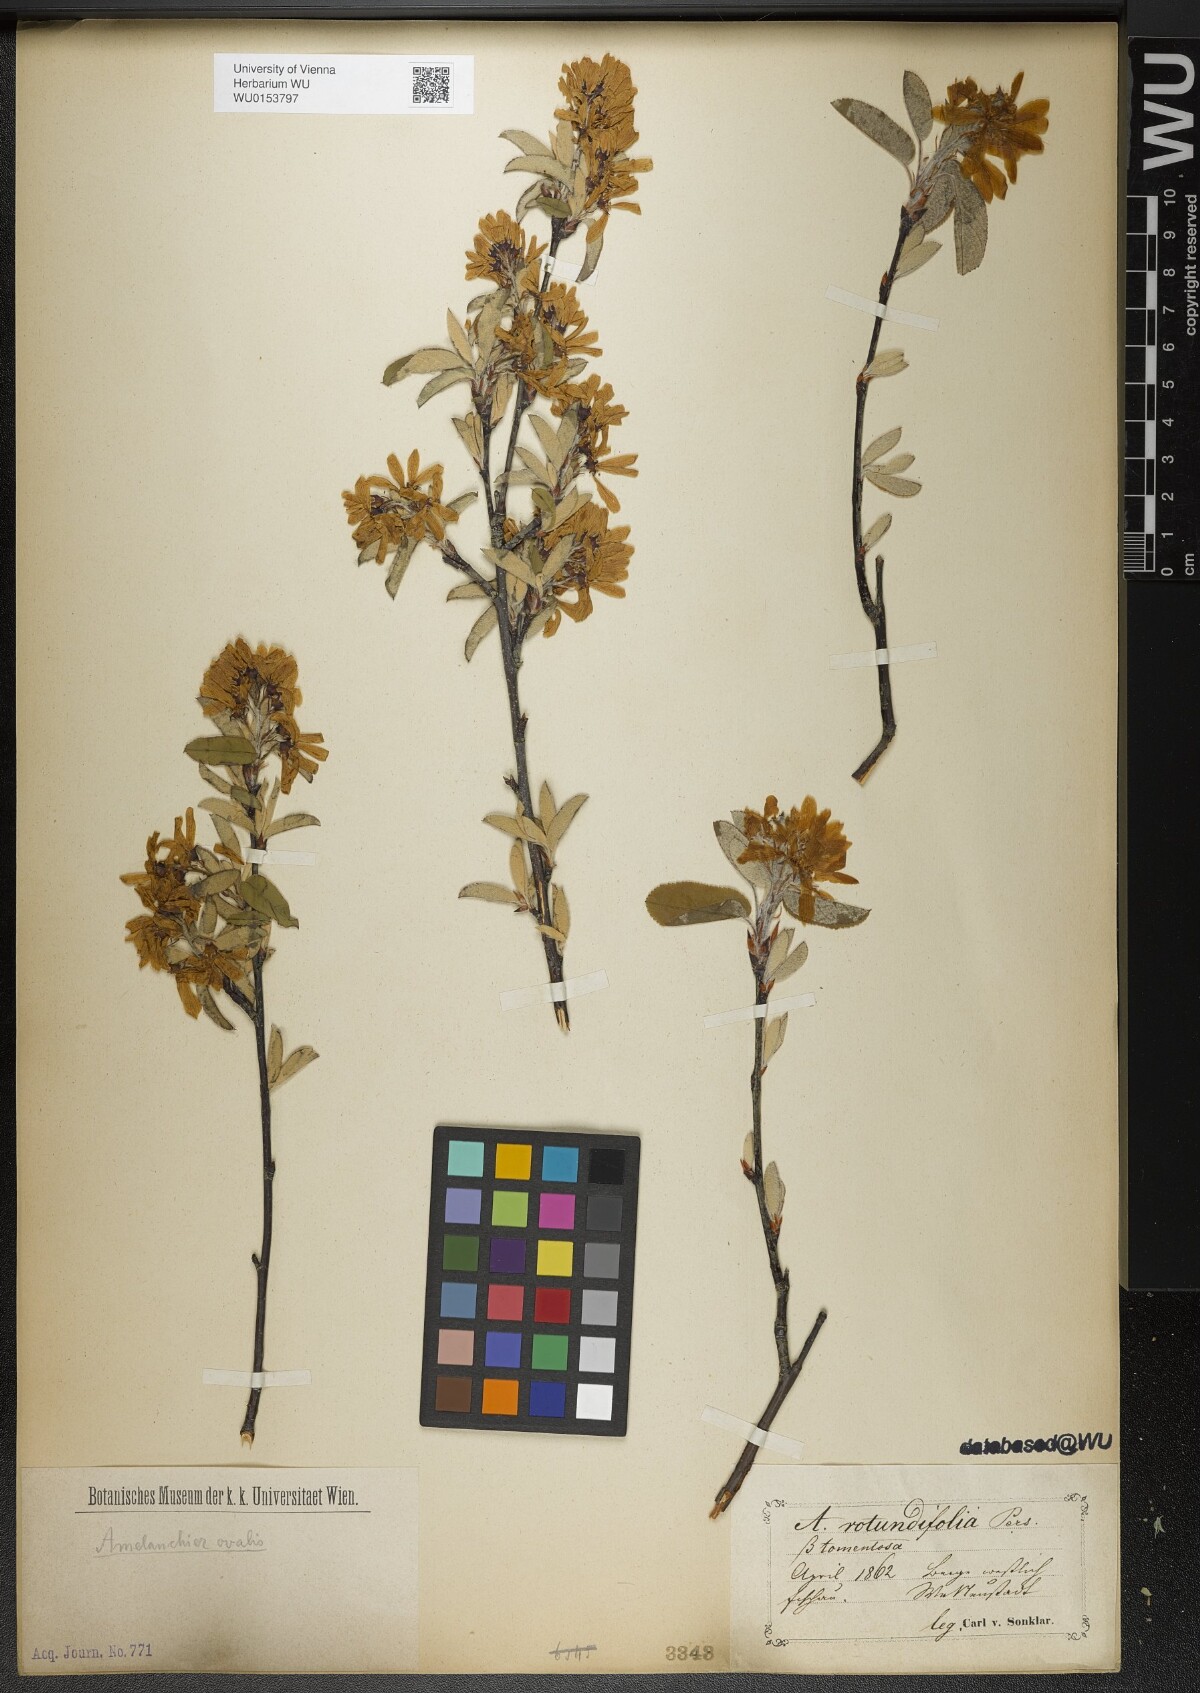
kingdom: Plantae
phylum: Tracheophyta
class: Magnoliopsida
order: Rosales
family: Rosaceae
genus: Amelanchier
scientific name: Amelanchier ovalis
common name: Serviceberry
